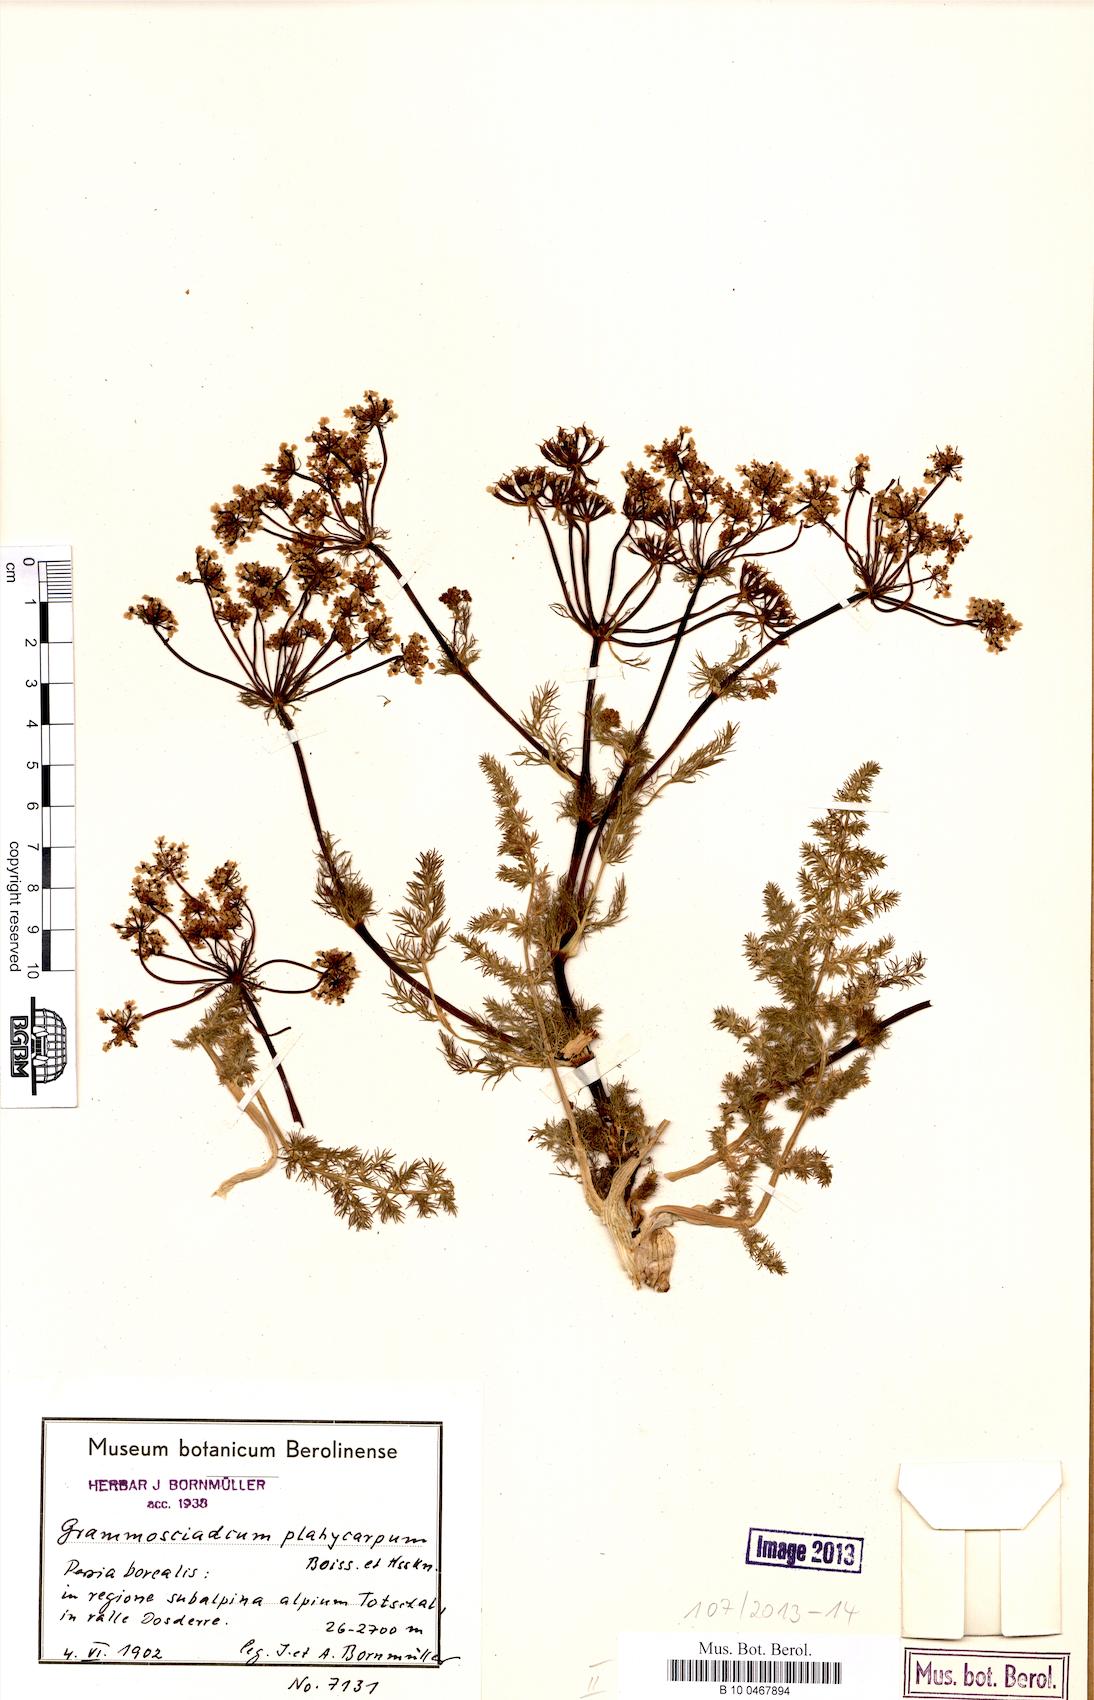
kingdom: Plantae
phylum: Tracheophyta
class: Magnoliopsida
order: Apiales
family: Apiaceae
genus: Caropodium
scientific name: Caropodium platycarpum
